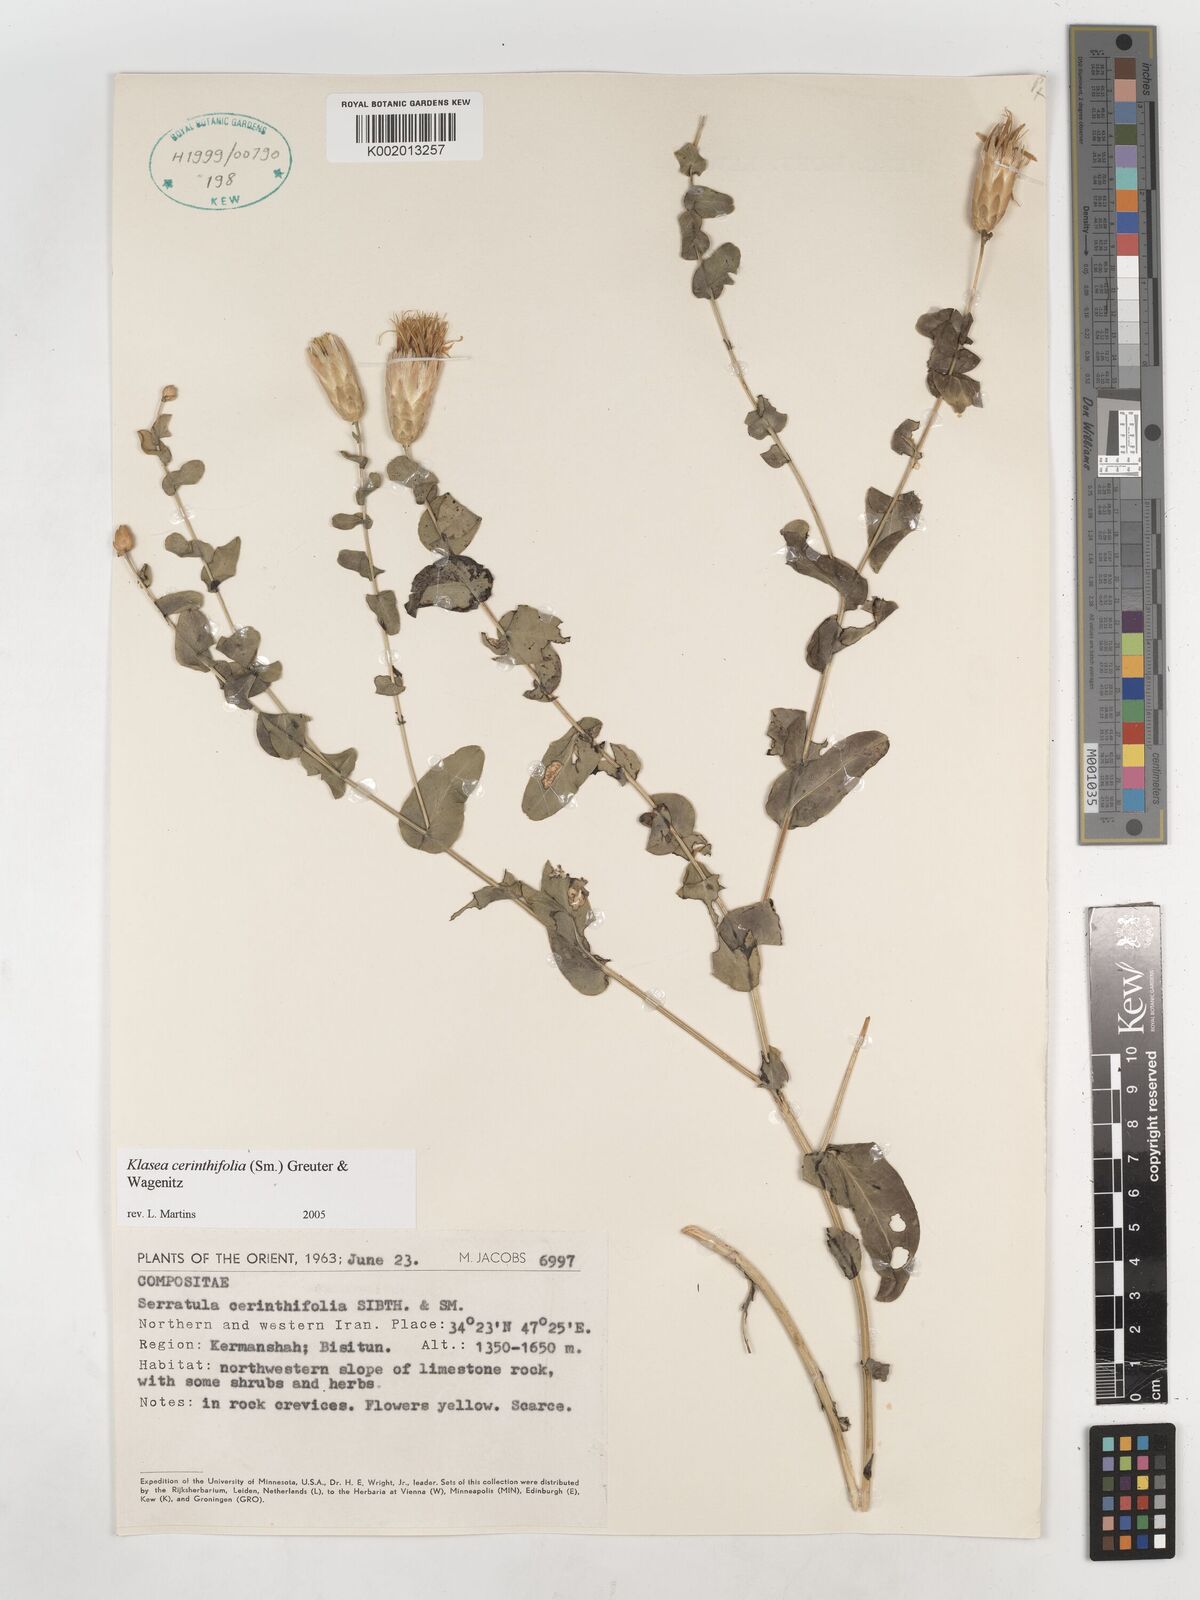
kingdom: Plantae
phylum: Tracheophyta
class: Magnoliopsida
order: Asterales
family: Asteraceae
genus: Klasea
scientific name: Klasea cerinthifolia
